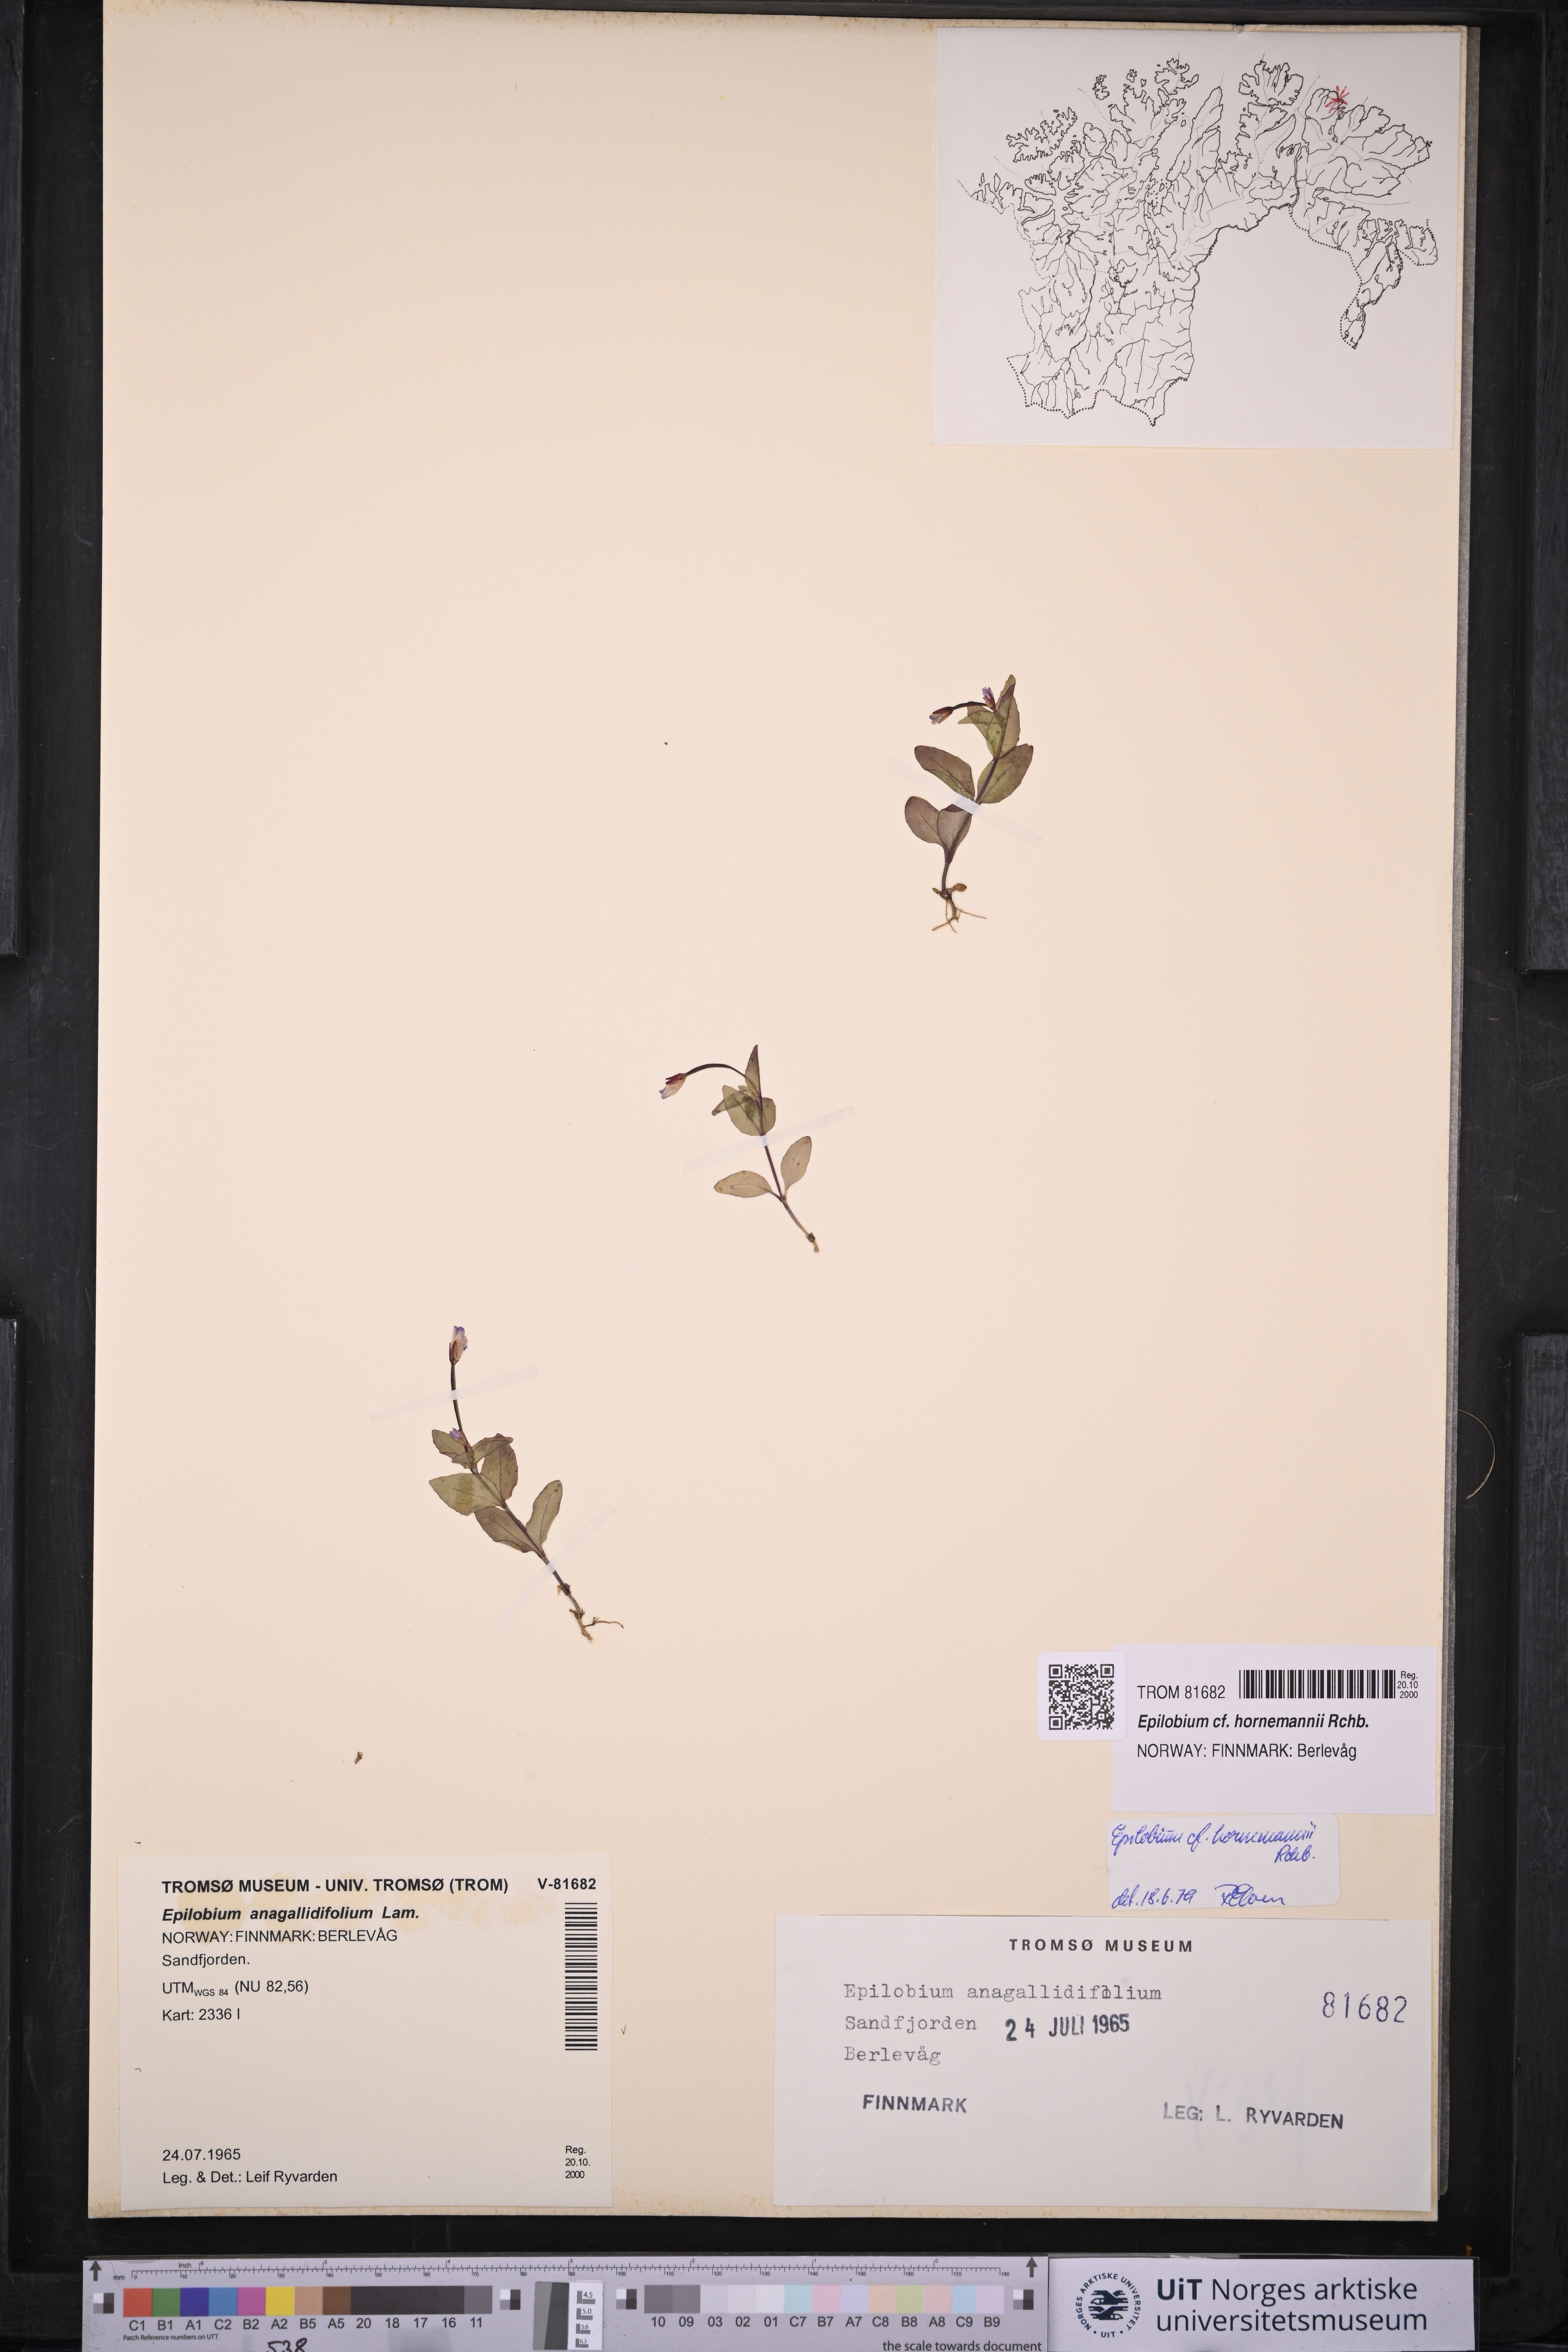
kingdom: Plantae
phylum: Tracheophyta
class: Magnoliopsida
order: Myrtales
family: Onagraceae
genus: Epilobium
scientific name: Epilobium hornemannii
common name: Hornemann's willowherb
